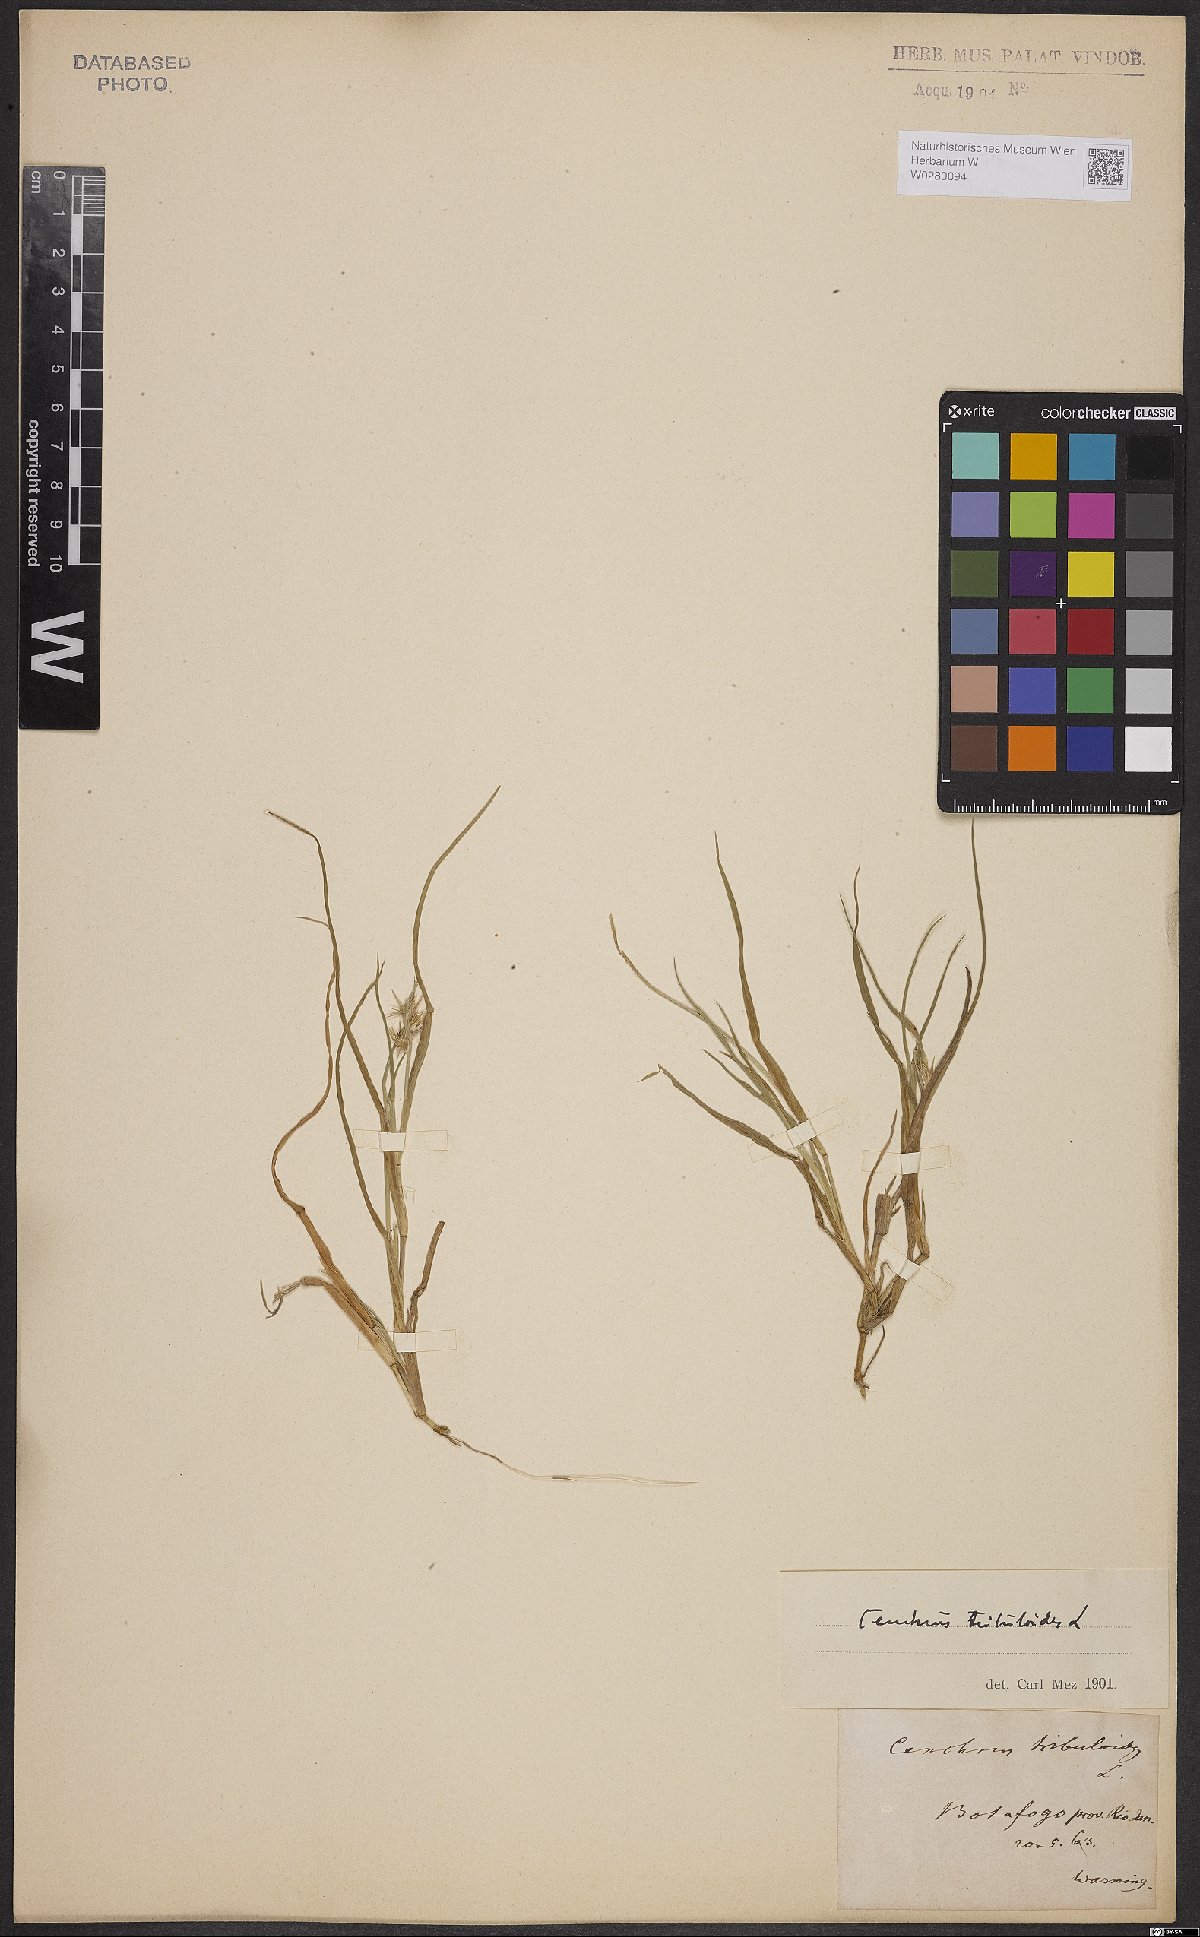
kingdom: Plantae
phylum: Tracheophyta
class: Liliopsida
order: Poales
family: Poaceae
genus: Cenchrus
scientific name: Cenchrus tribuloides
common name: Dune sandbur
